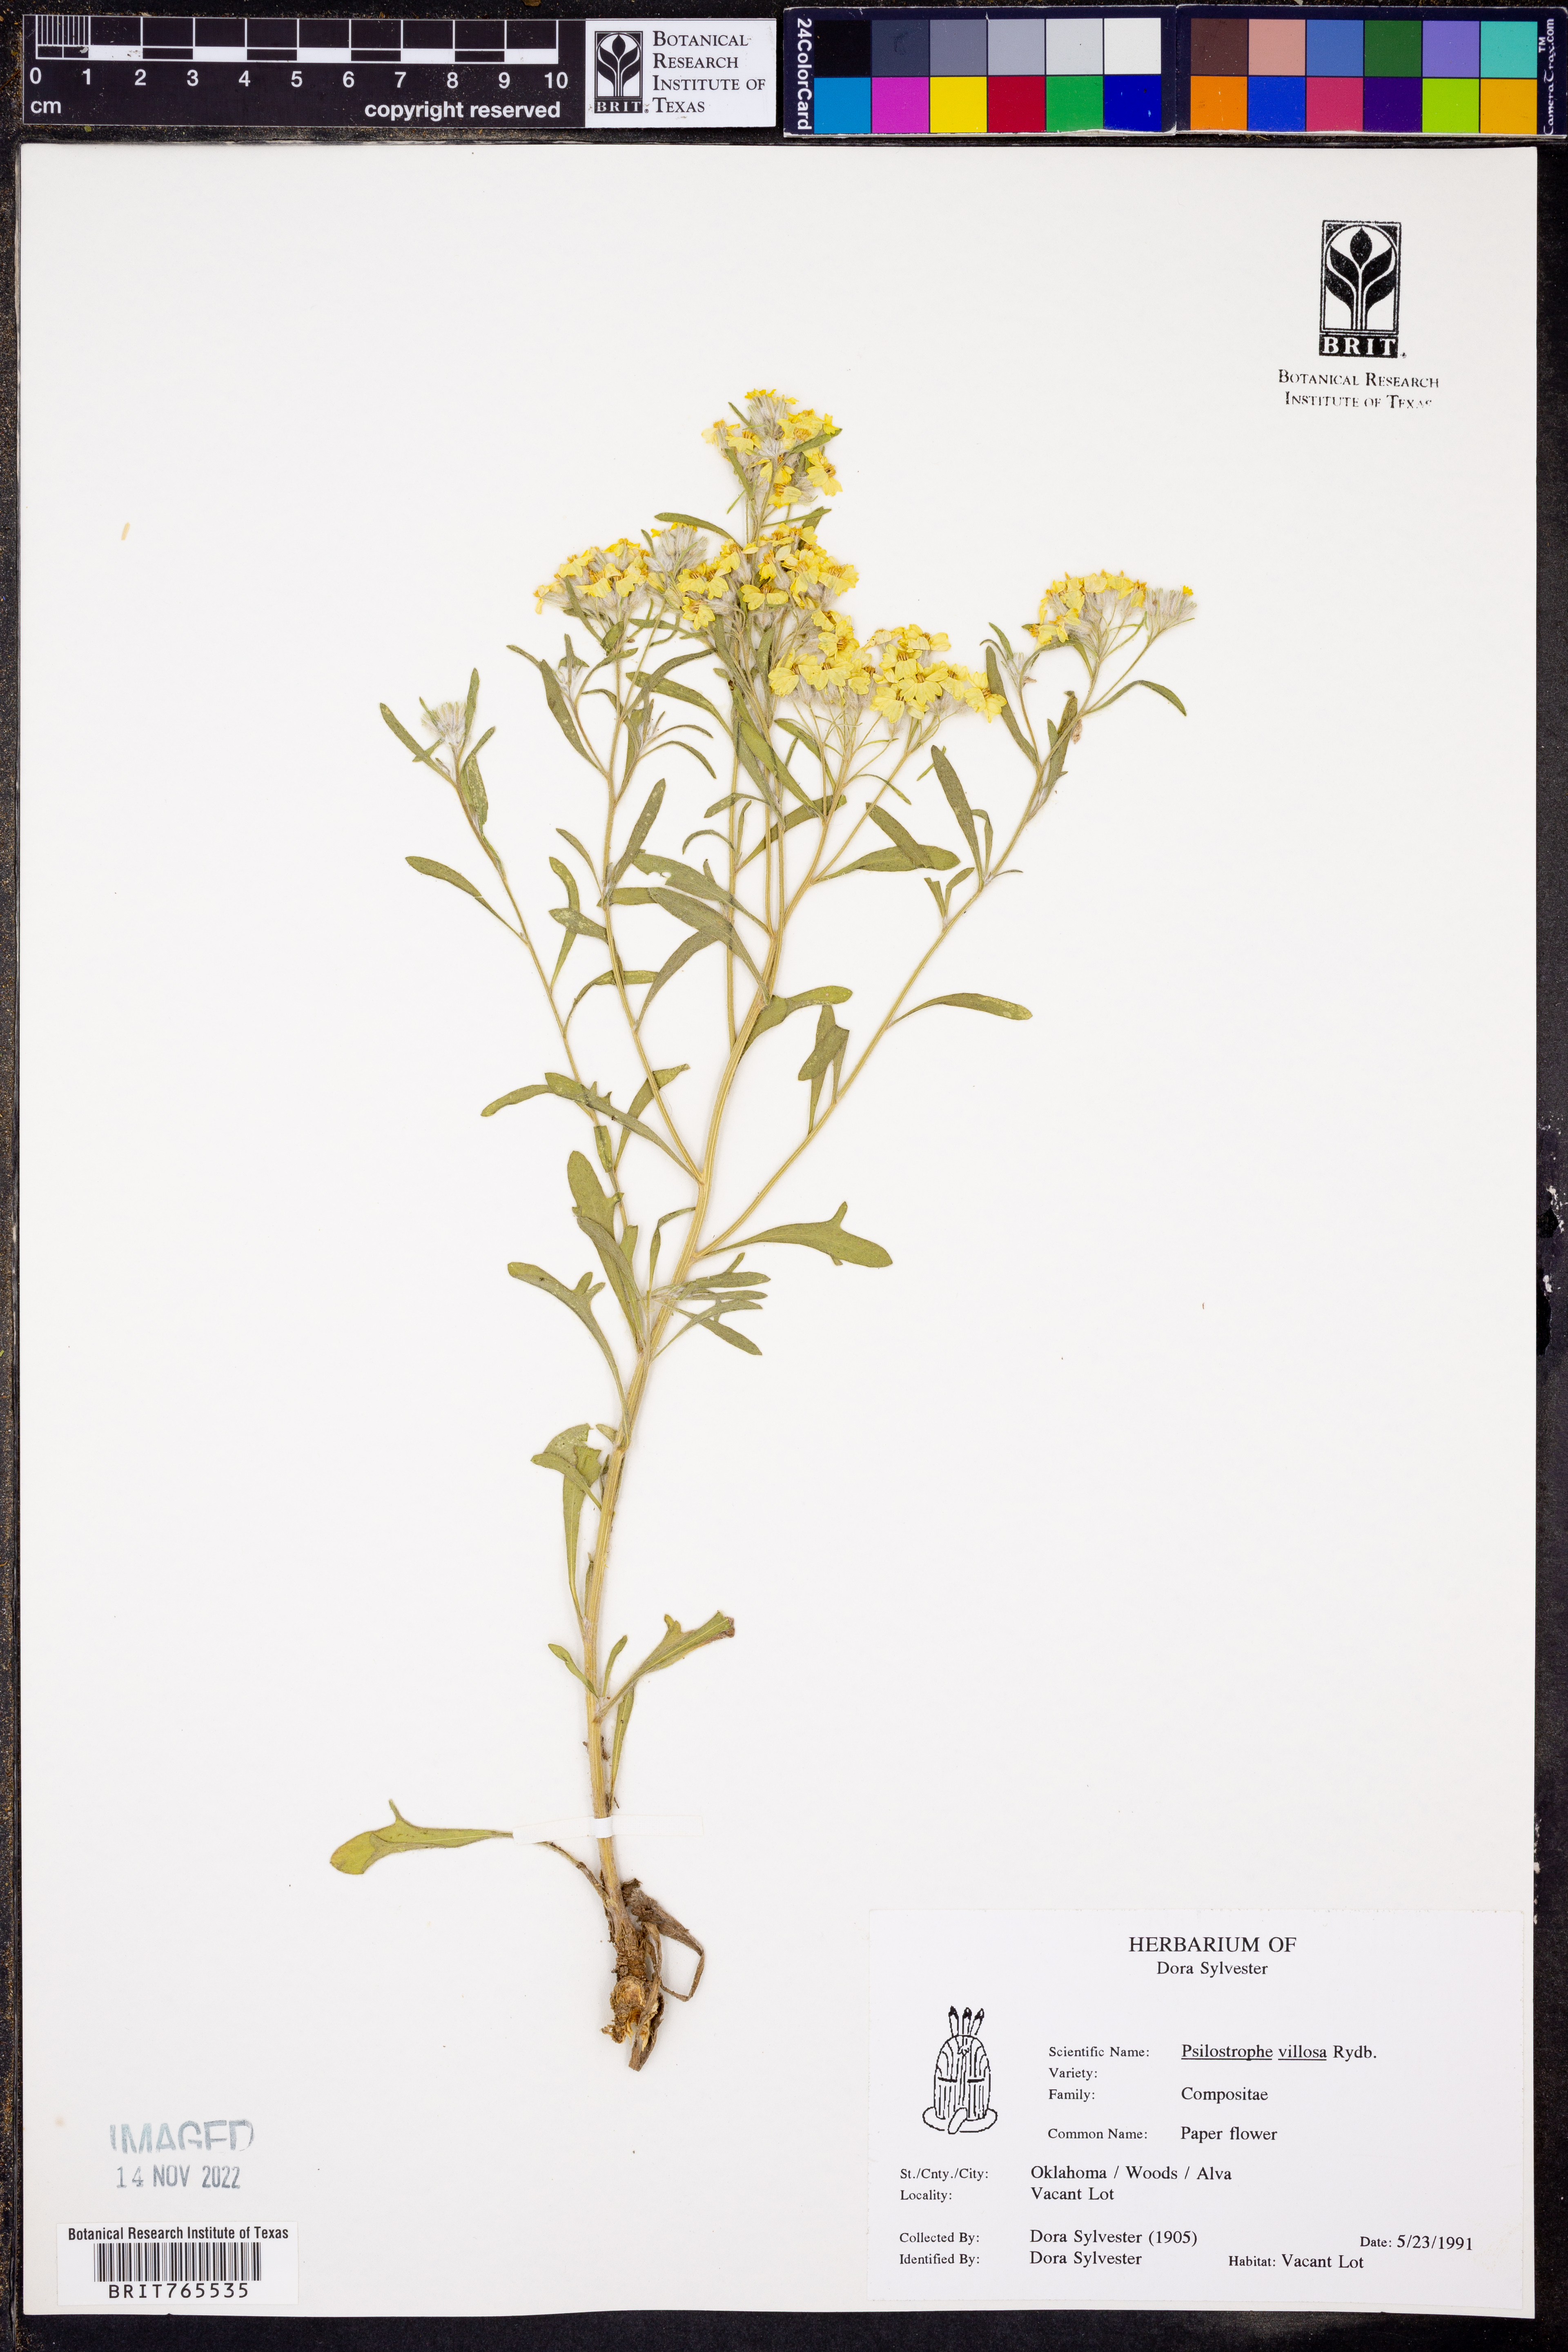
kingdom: Plantae
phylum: Tracheophyta
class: Magnoliopsida
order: Asterales
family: Asteraceae
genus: Psilostrophe
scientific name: Psilostrophe villosa
